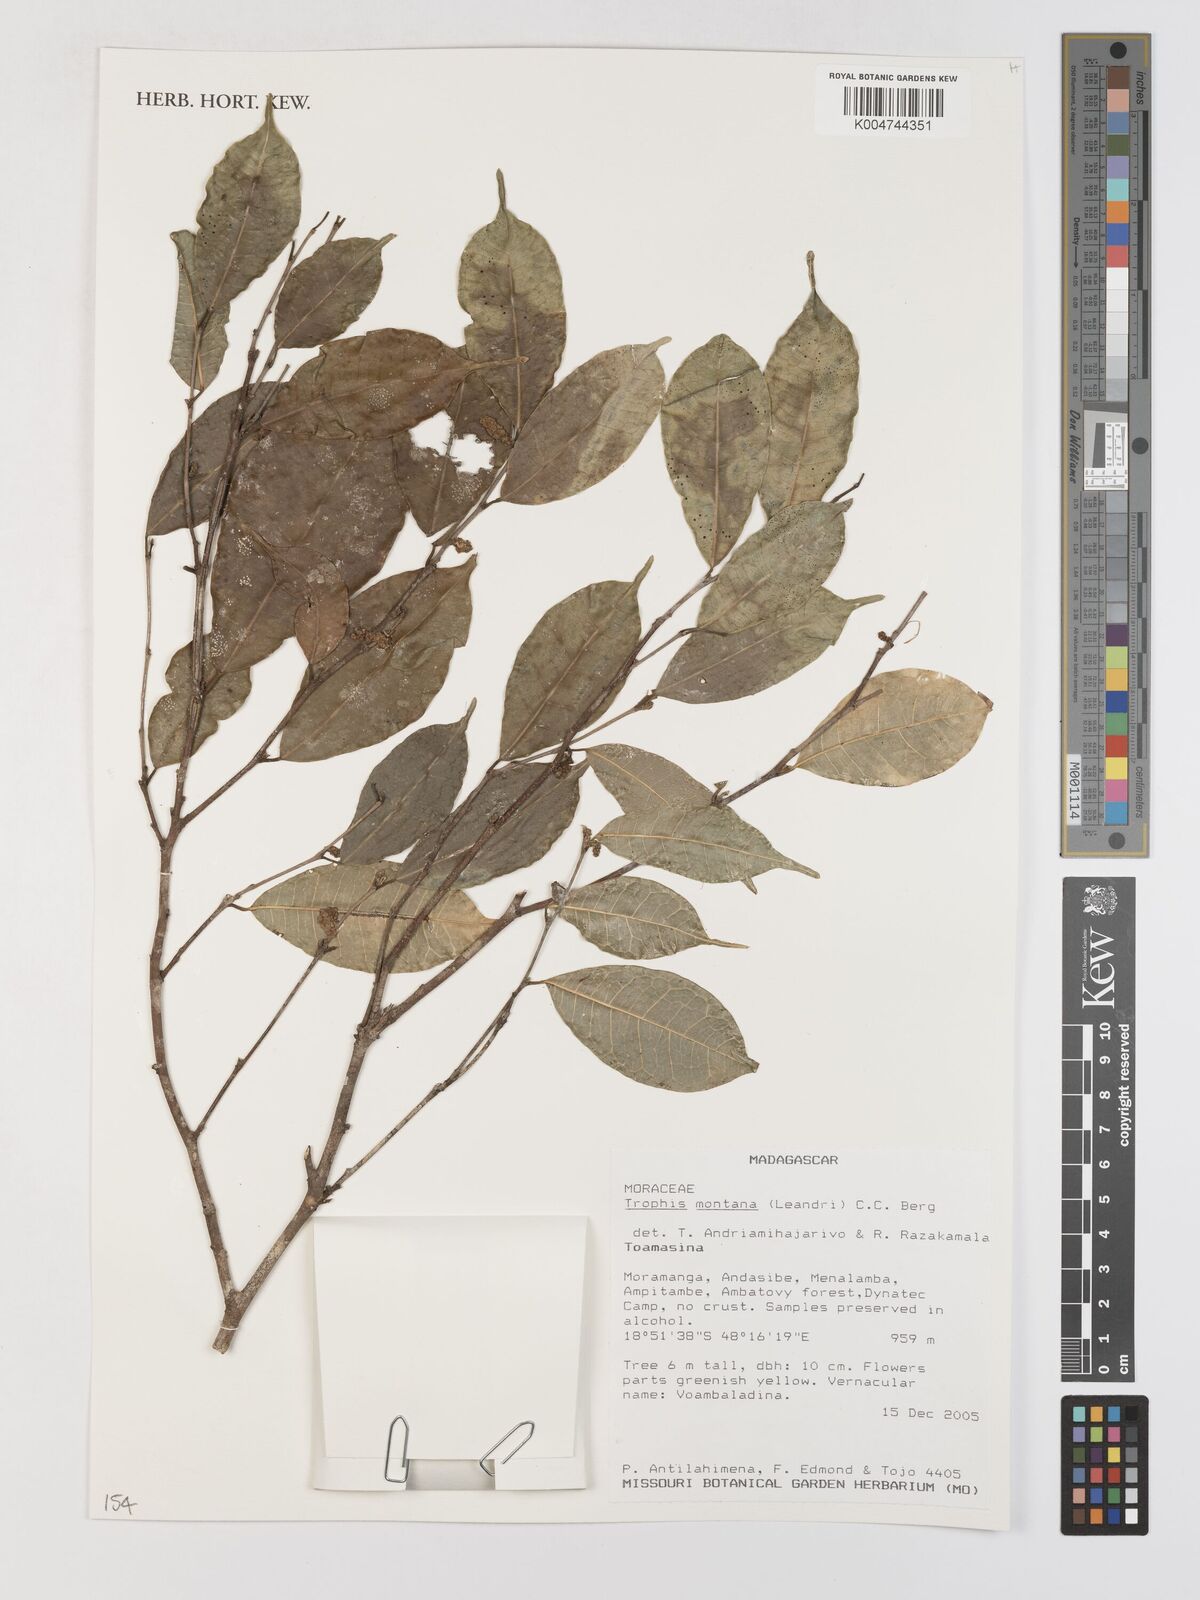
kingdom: Plantae
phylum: Tracheophyta
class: Magnoliopsida
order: Rosales
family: Moraceae
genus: Maillardia
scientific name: Maillardia montana
